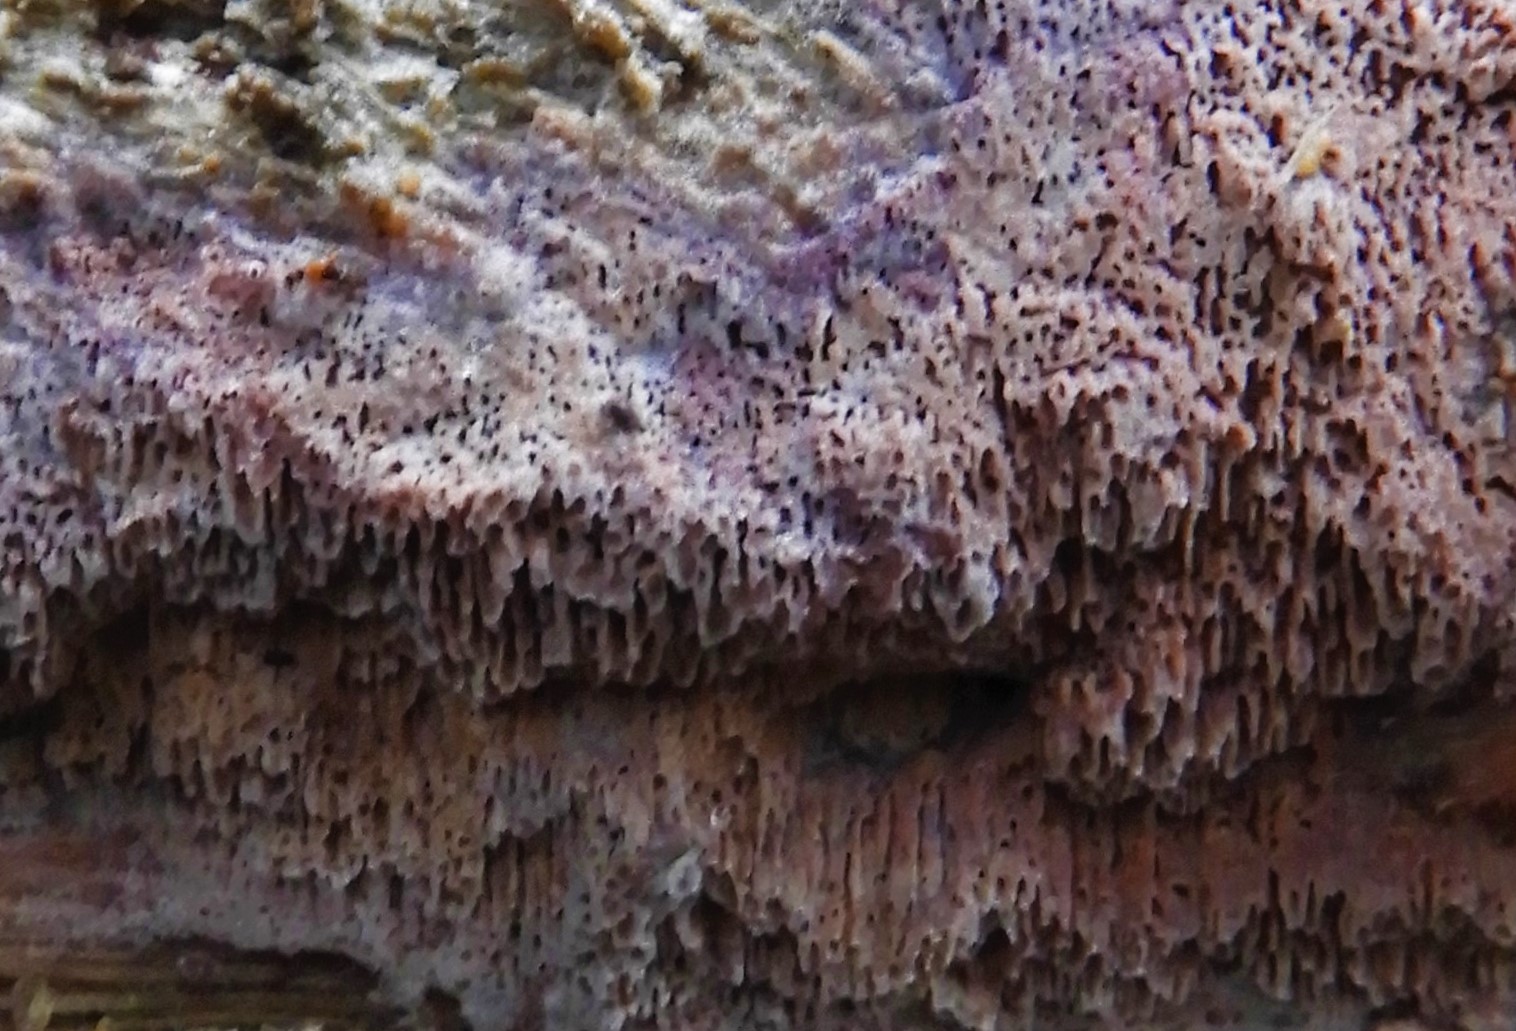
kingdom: Fungi
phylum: Basidiomycota
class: Agaricomycetes
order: Polyporales
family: Irpicaceae
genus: Ceriporia
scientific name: Ceriporia
